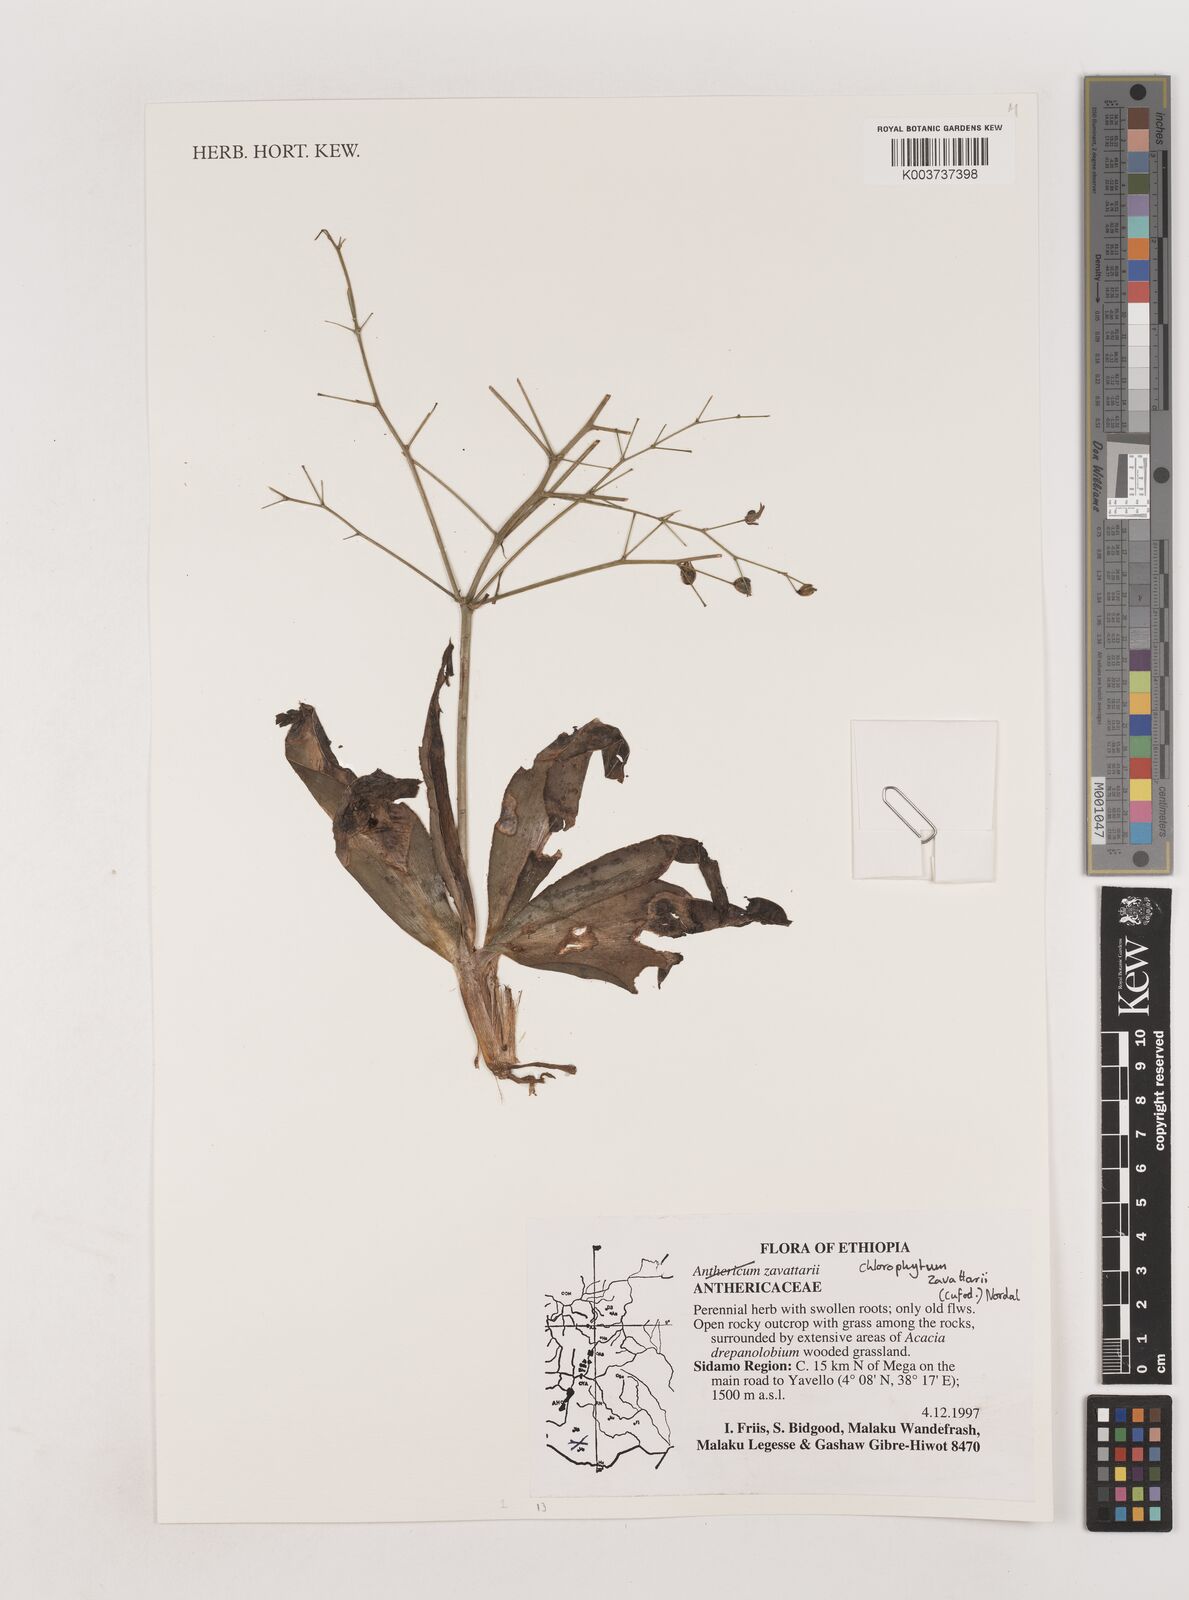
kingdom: Plantae
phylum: Tracheophyta
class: Liliopsida
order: Asparagales
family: Asparagaceae
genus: Chlorophytum
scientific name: Chlorophytum zavattarii
